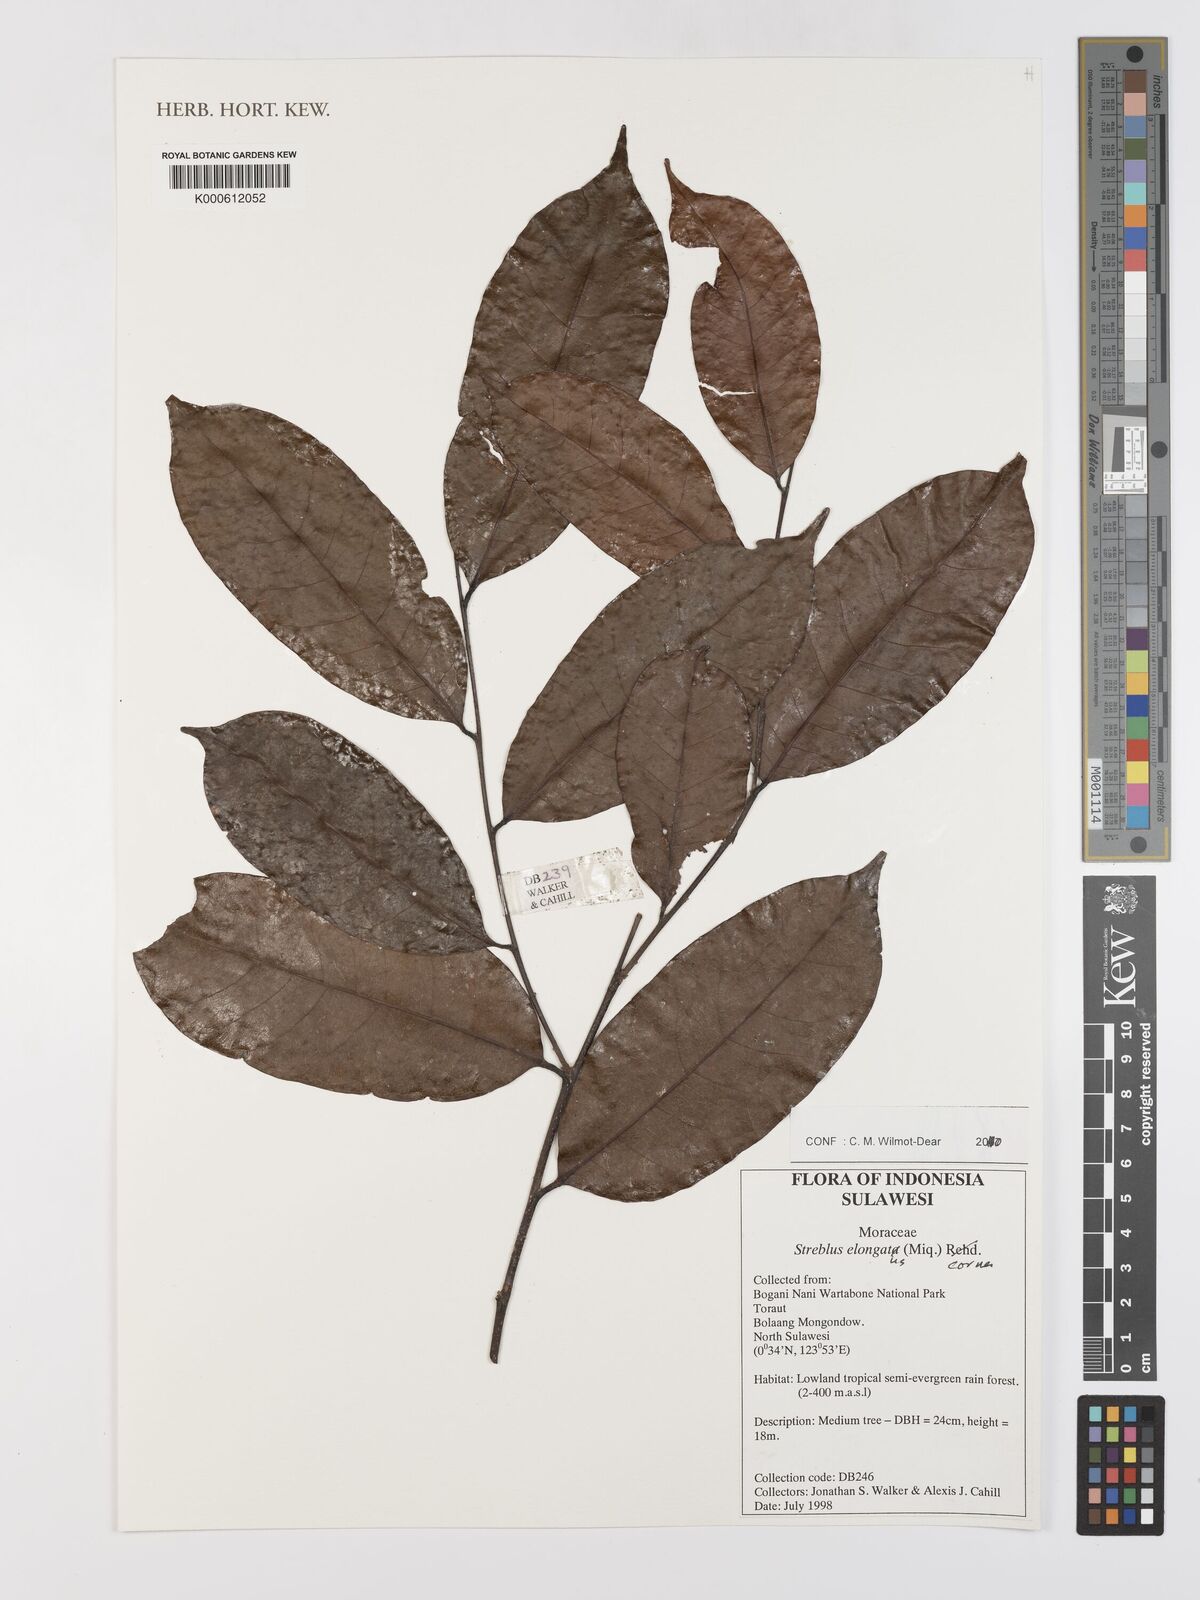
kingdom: Plantae
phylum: Tracheophyta
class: Magnoliopsida
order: Rosales
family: Moraceae
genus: Sloetia
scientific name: Sloetia elongata
